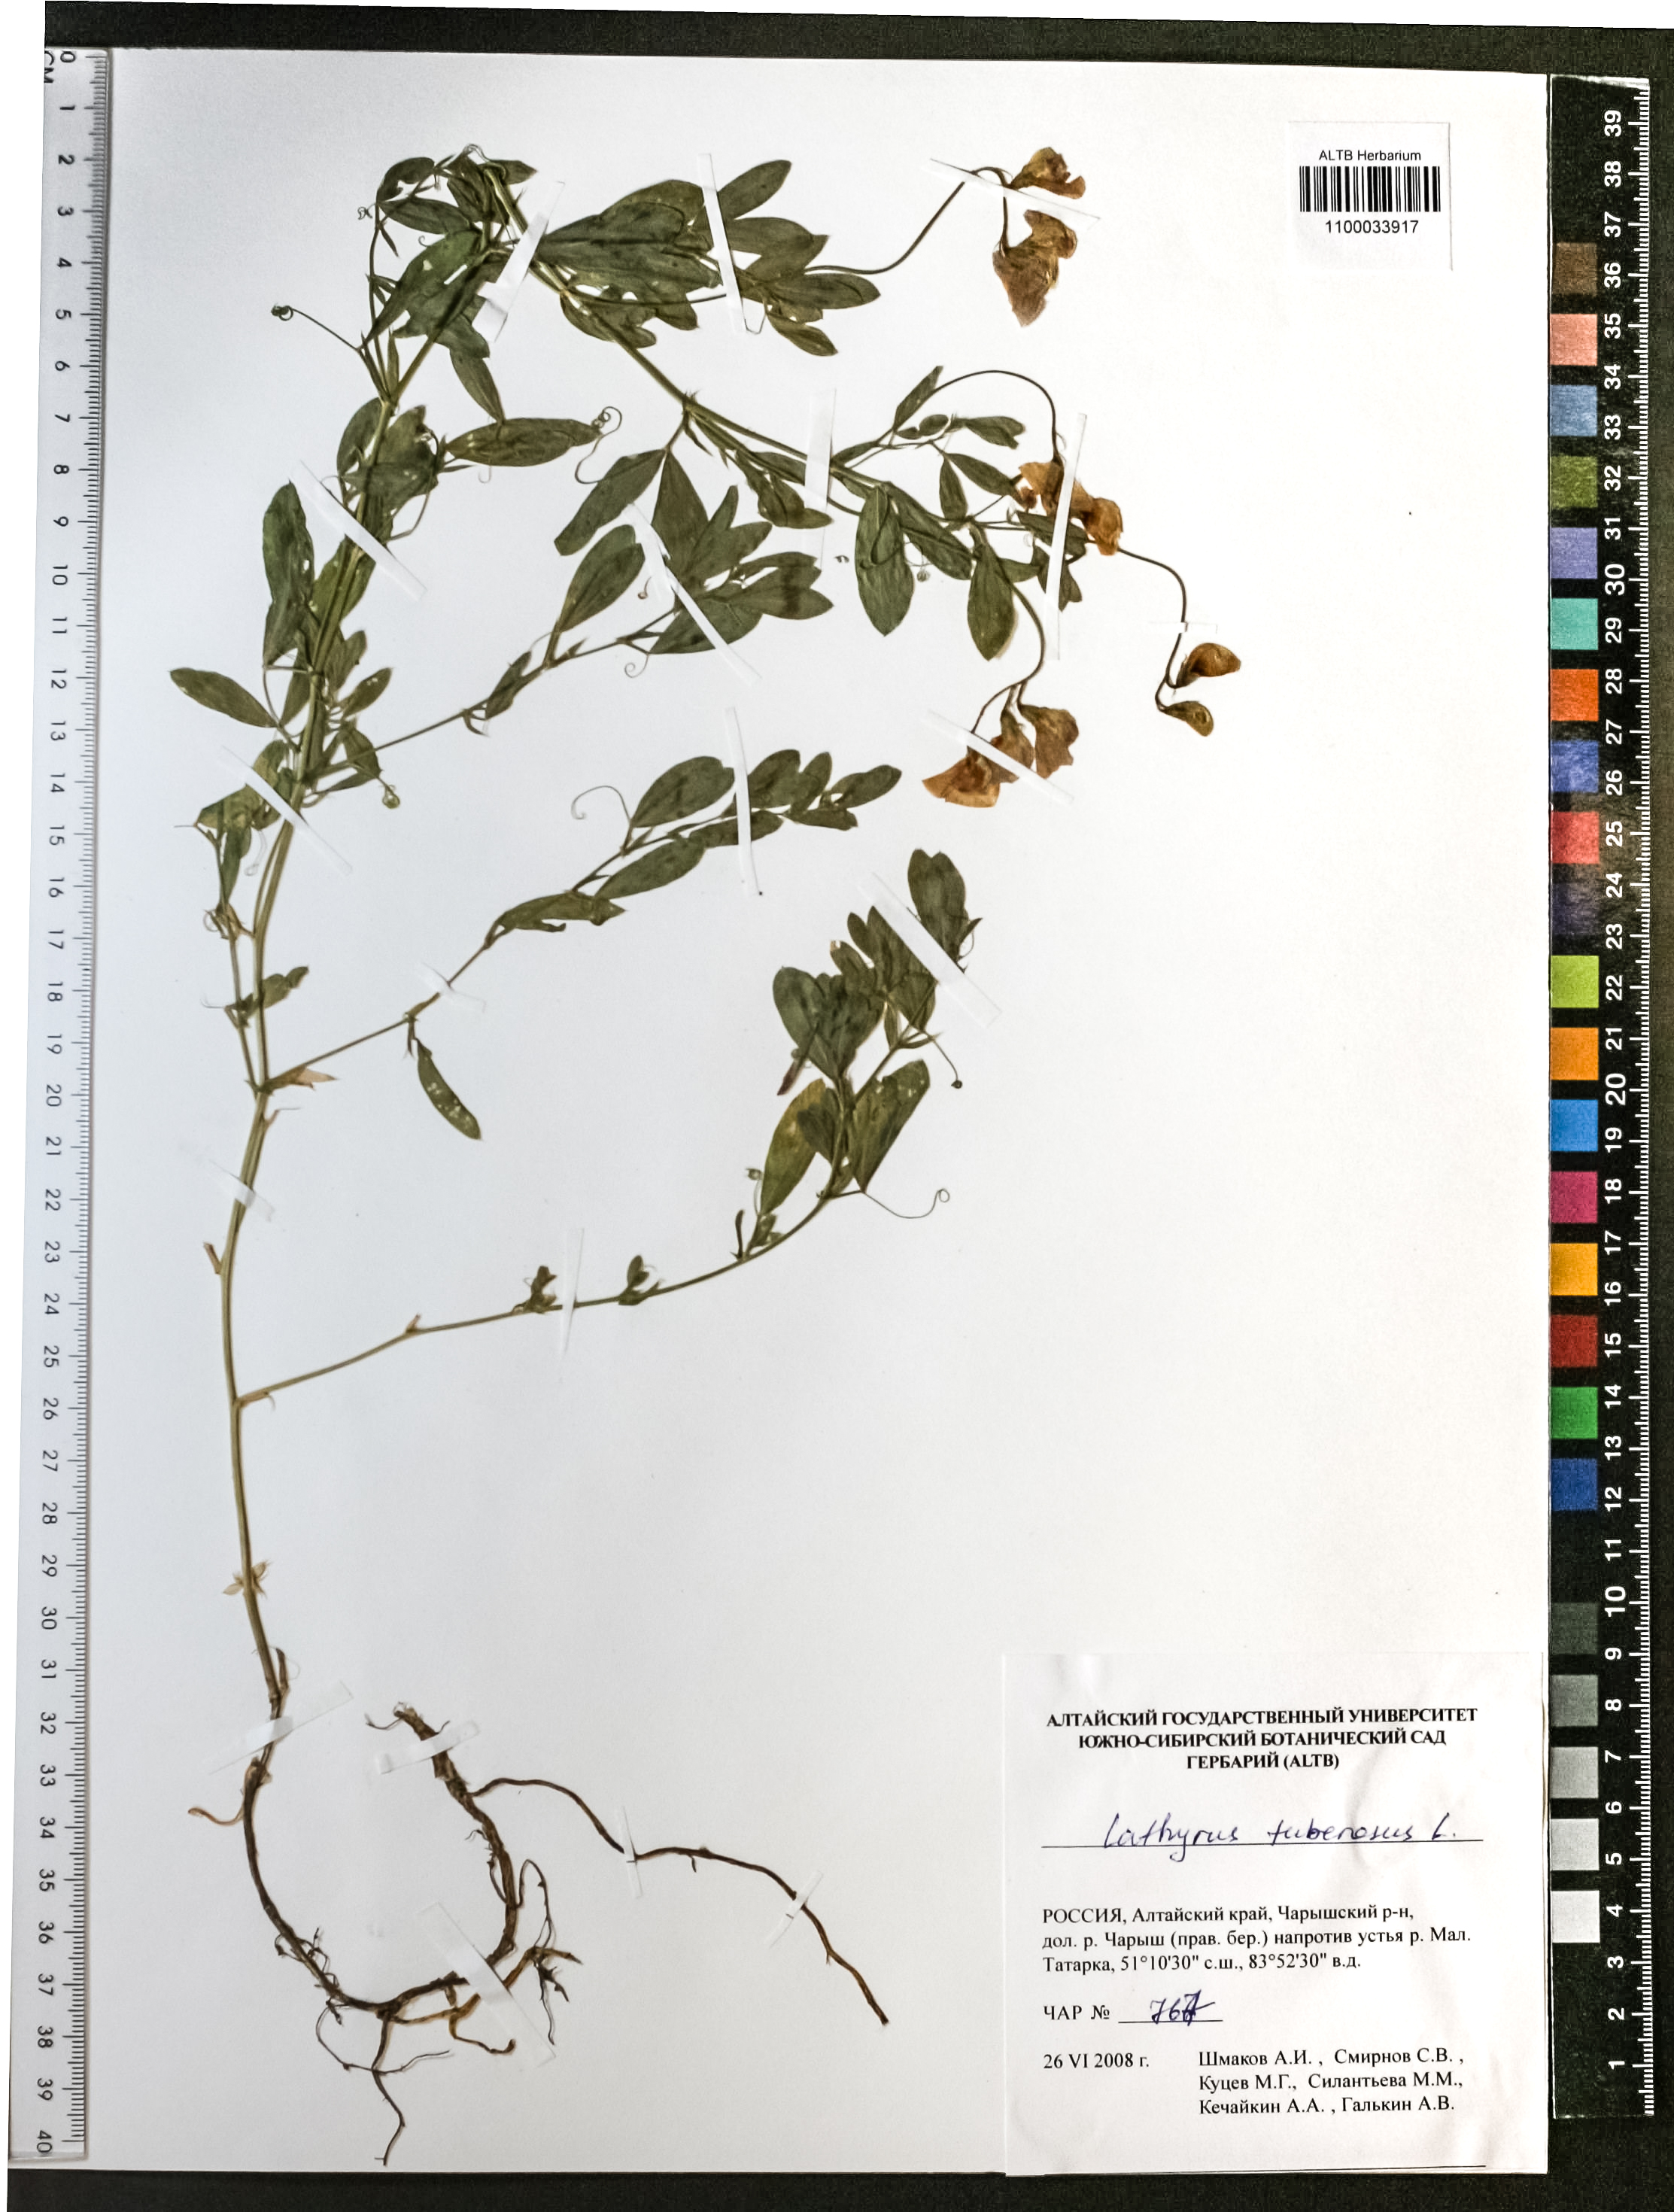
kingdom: Plantae
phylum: Tracheophyta
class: Magnoliopsida
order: Fabales
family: Fabaceae
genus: Lathyrus
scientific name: Lathyrus tuberosus
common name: Tuberous pea
